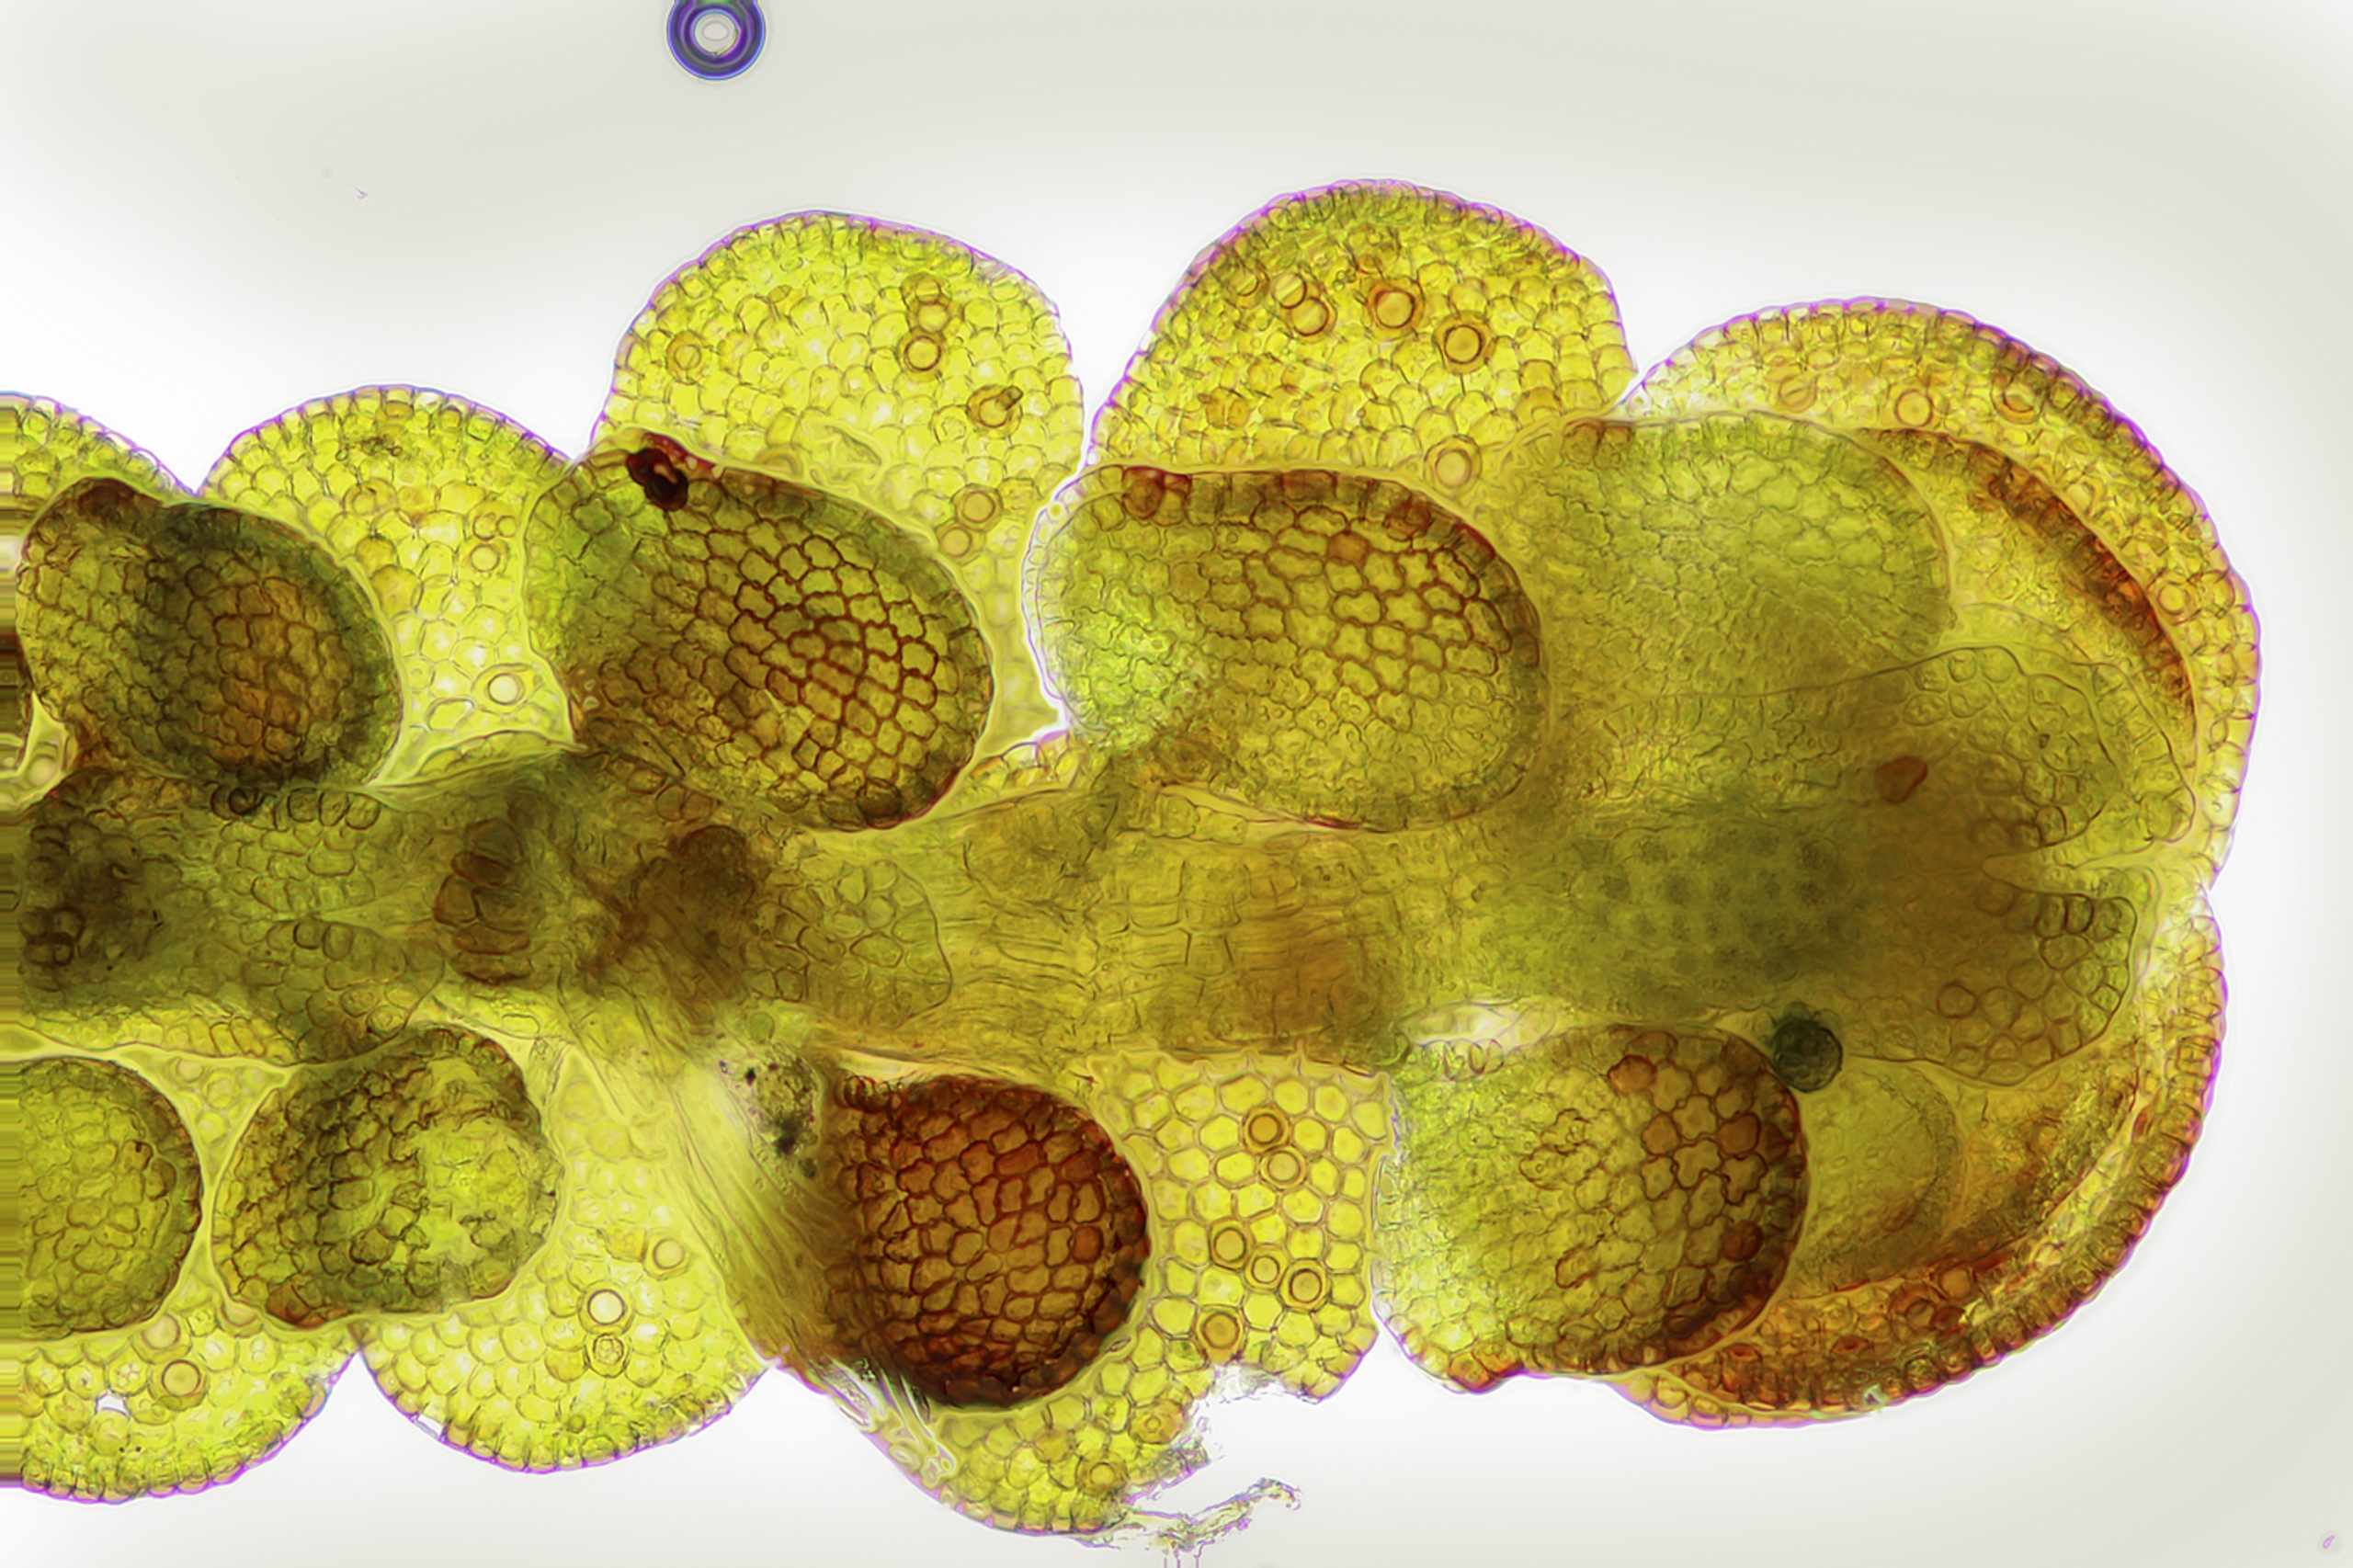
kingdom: Plantae
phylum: Marchantiophyta
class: Jungermanniopsida
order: Porellales
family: Frullaniaceae
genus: Frullania
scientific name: Frullania fragilifolia
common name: Skør bronzemos
